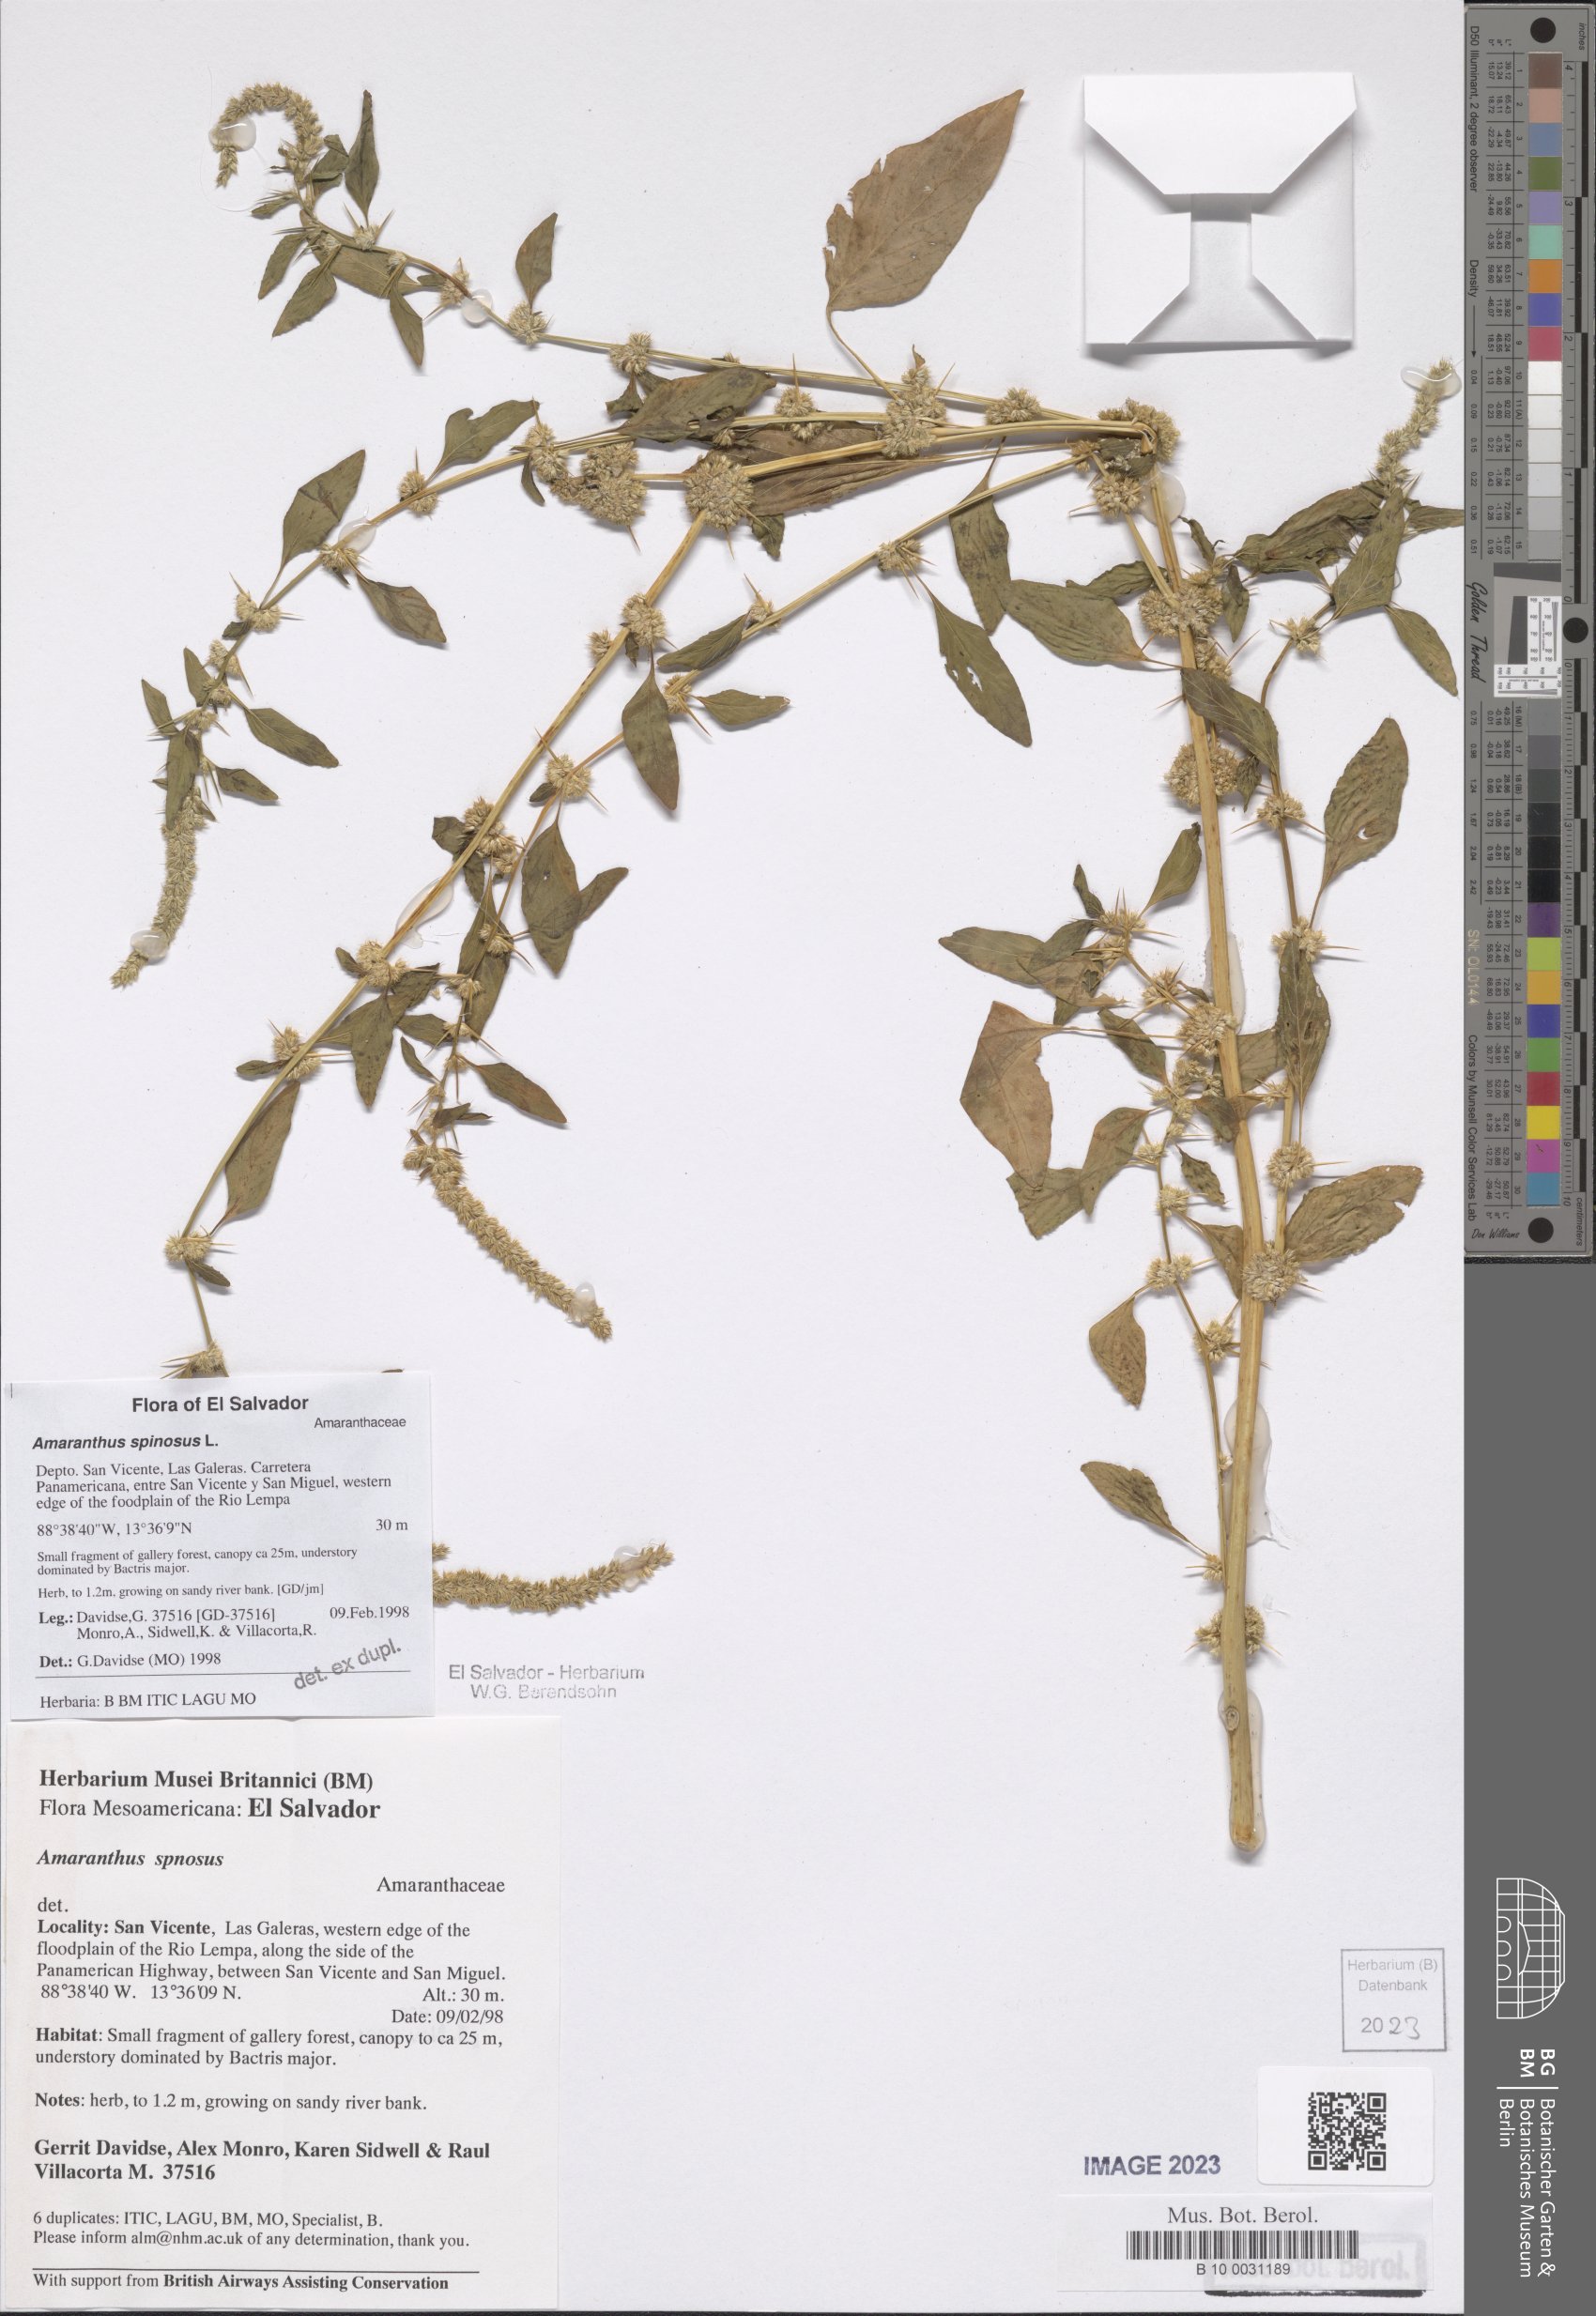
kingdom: Plantae
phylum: Tracheophyta
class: Magnoliopsida
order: Caryophyllales
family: Amaranthaceae
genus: Amaranthus
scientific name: Amaranthus spinosus
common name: Spiny amaranth
